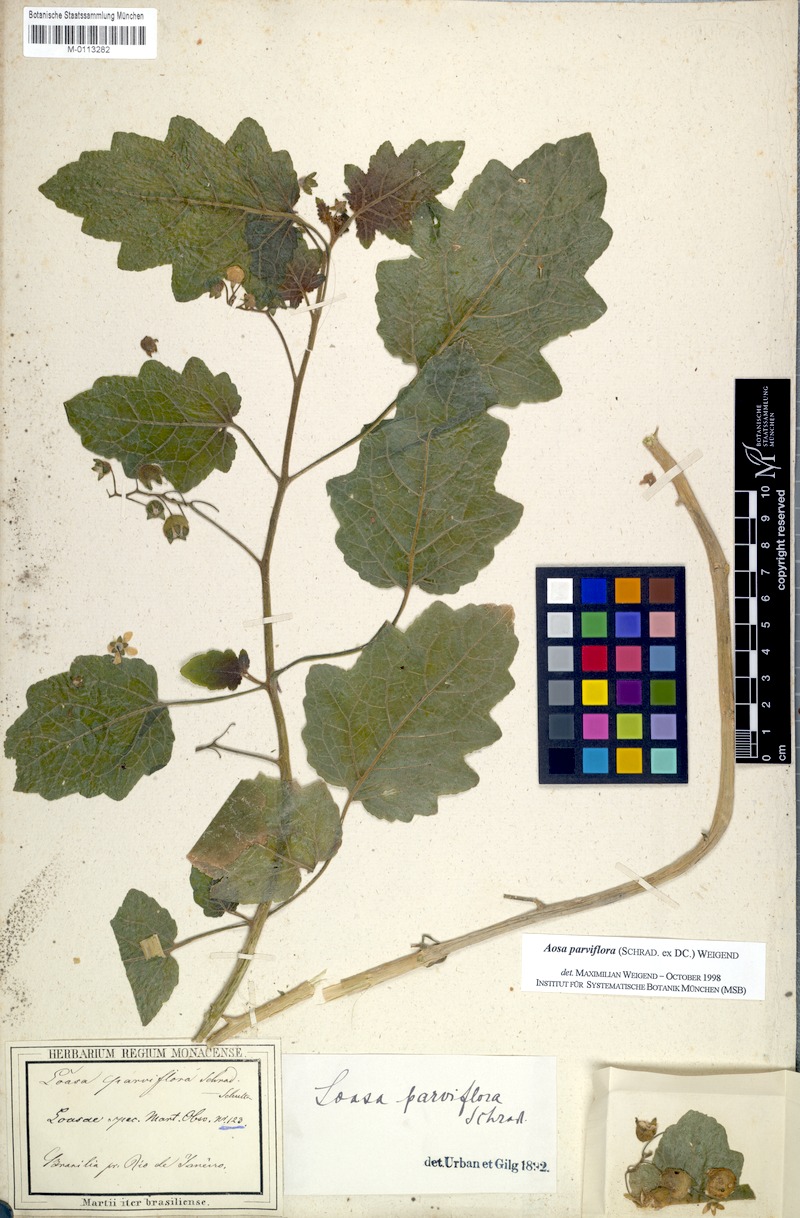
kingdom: Plantae
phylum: Tracheophyta
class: Magnoliopsida
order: Cornales
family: Loasaceae
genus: Aosa
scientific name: Aosa parviflora
